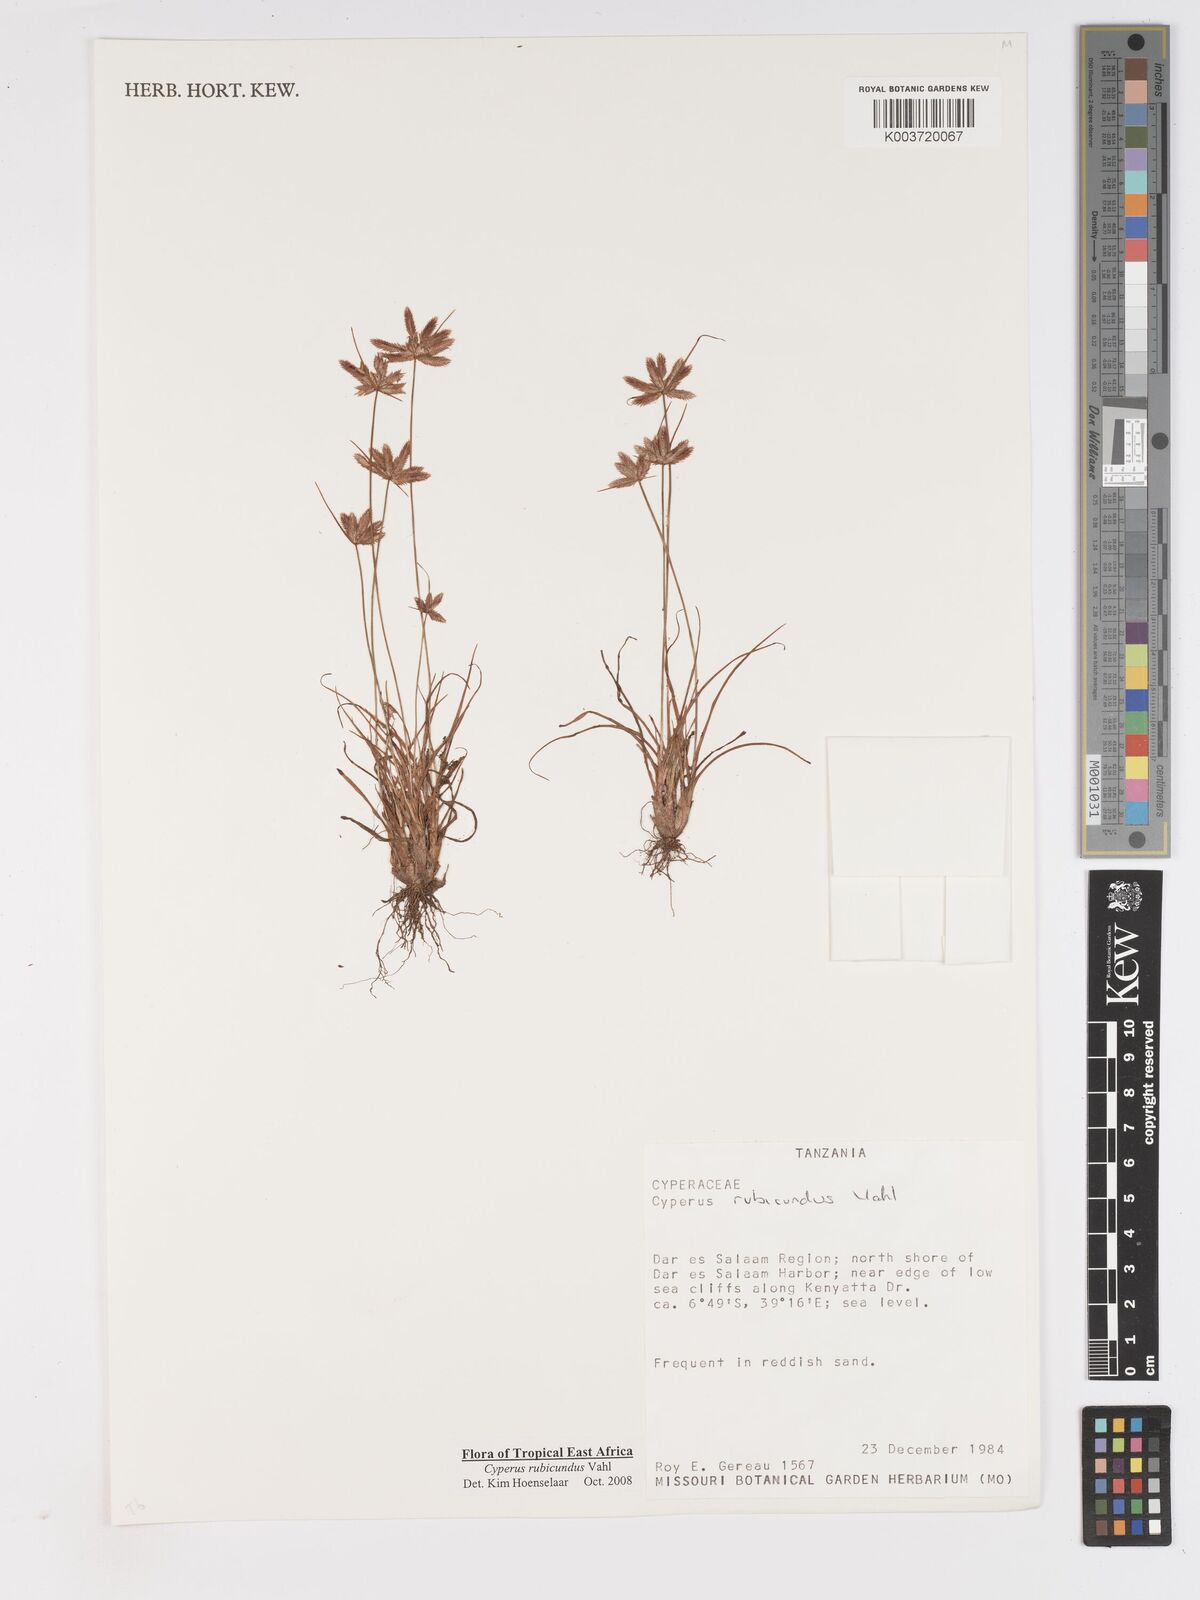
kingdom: Plantae
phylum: Tracheophyta
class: Liliopsida
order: Poales
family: Cyperaceae
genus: Cyperus
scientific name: Cyperus rubicundus
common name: Coco-grass
